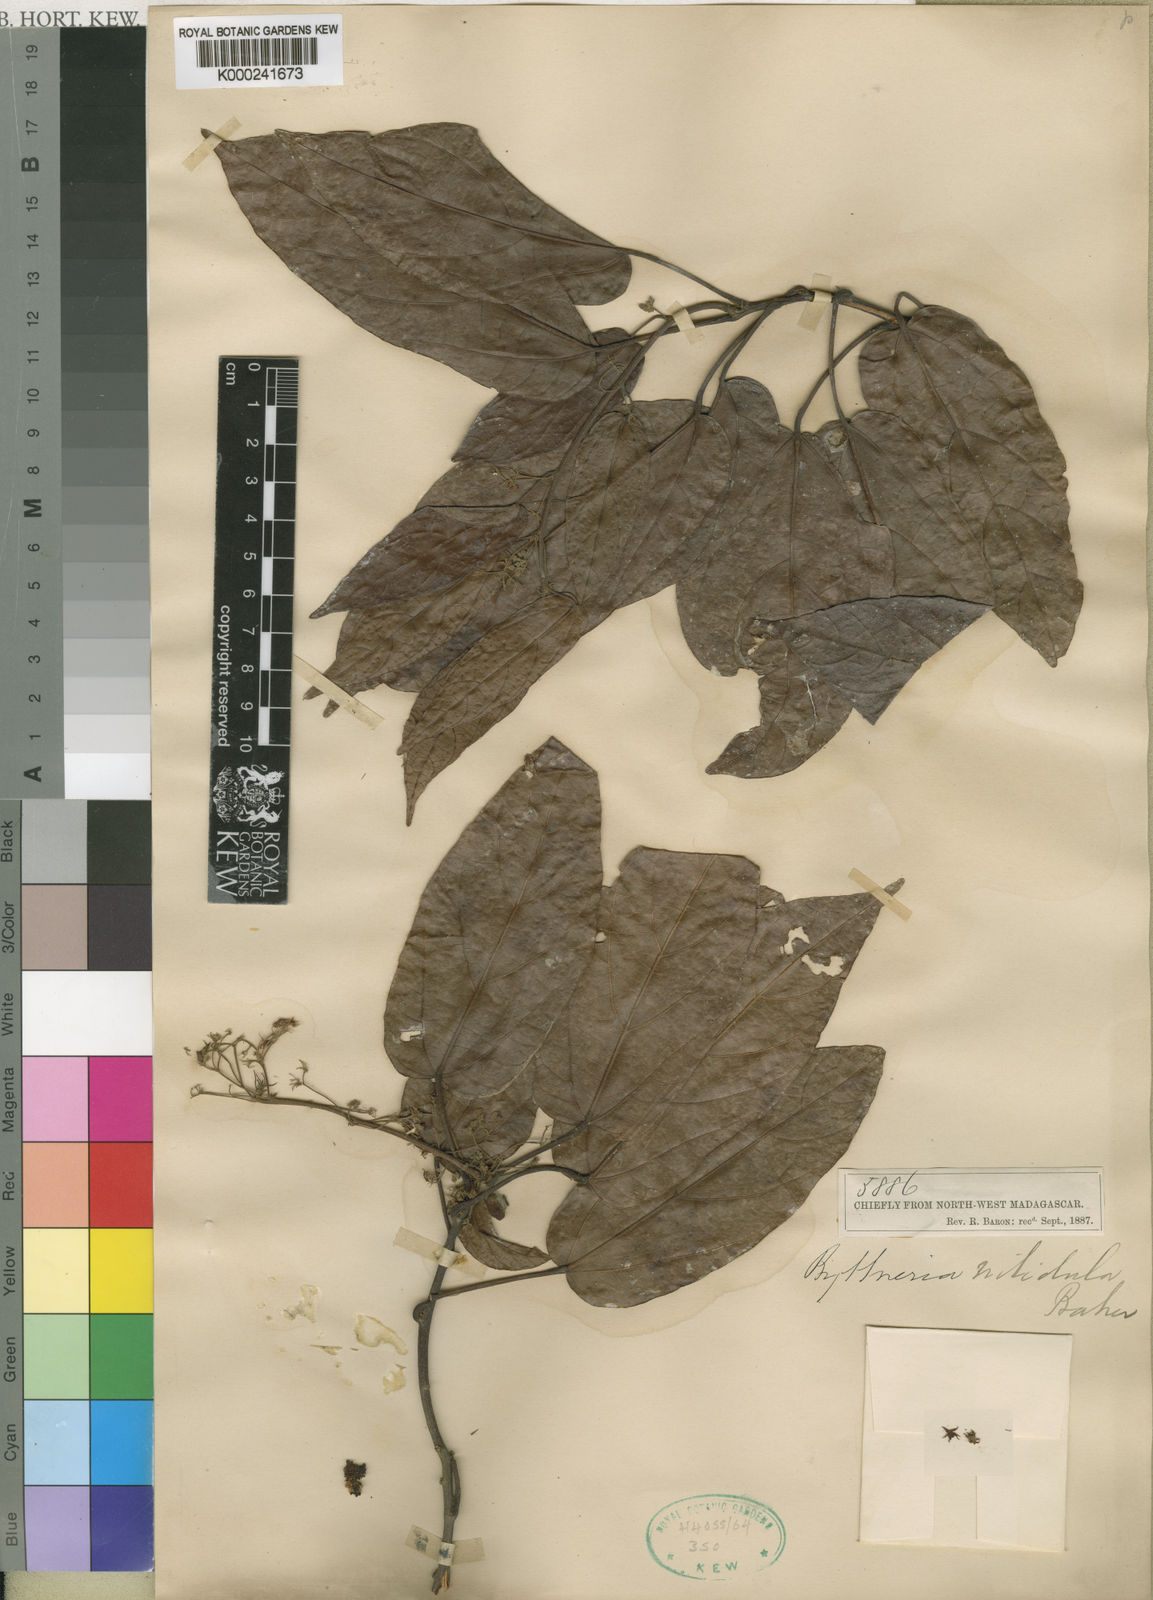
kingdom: Plantae
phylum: Tracheophyta
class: Magnoliopsida
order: Malvales
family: Malvaceae
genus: Byttneria
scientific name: Byttneria nitidula
